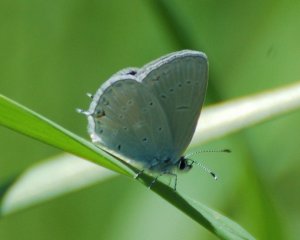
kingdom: Animalia
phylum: Arthropoda
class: Insecta
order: Lepidoptera
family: Lycaenidae
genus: Elkalyce
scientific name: Elkalyce amyntula
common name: Western Tailed-Blue
